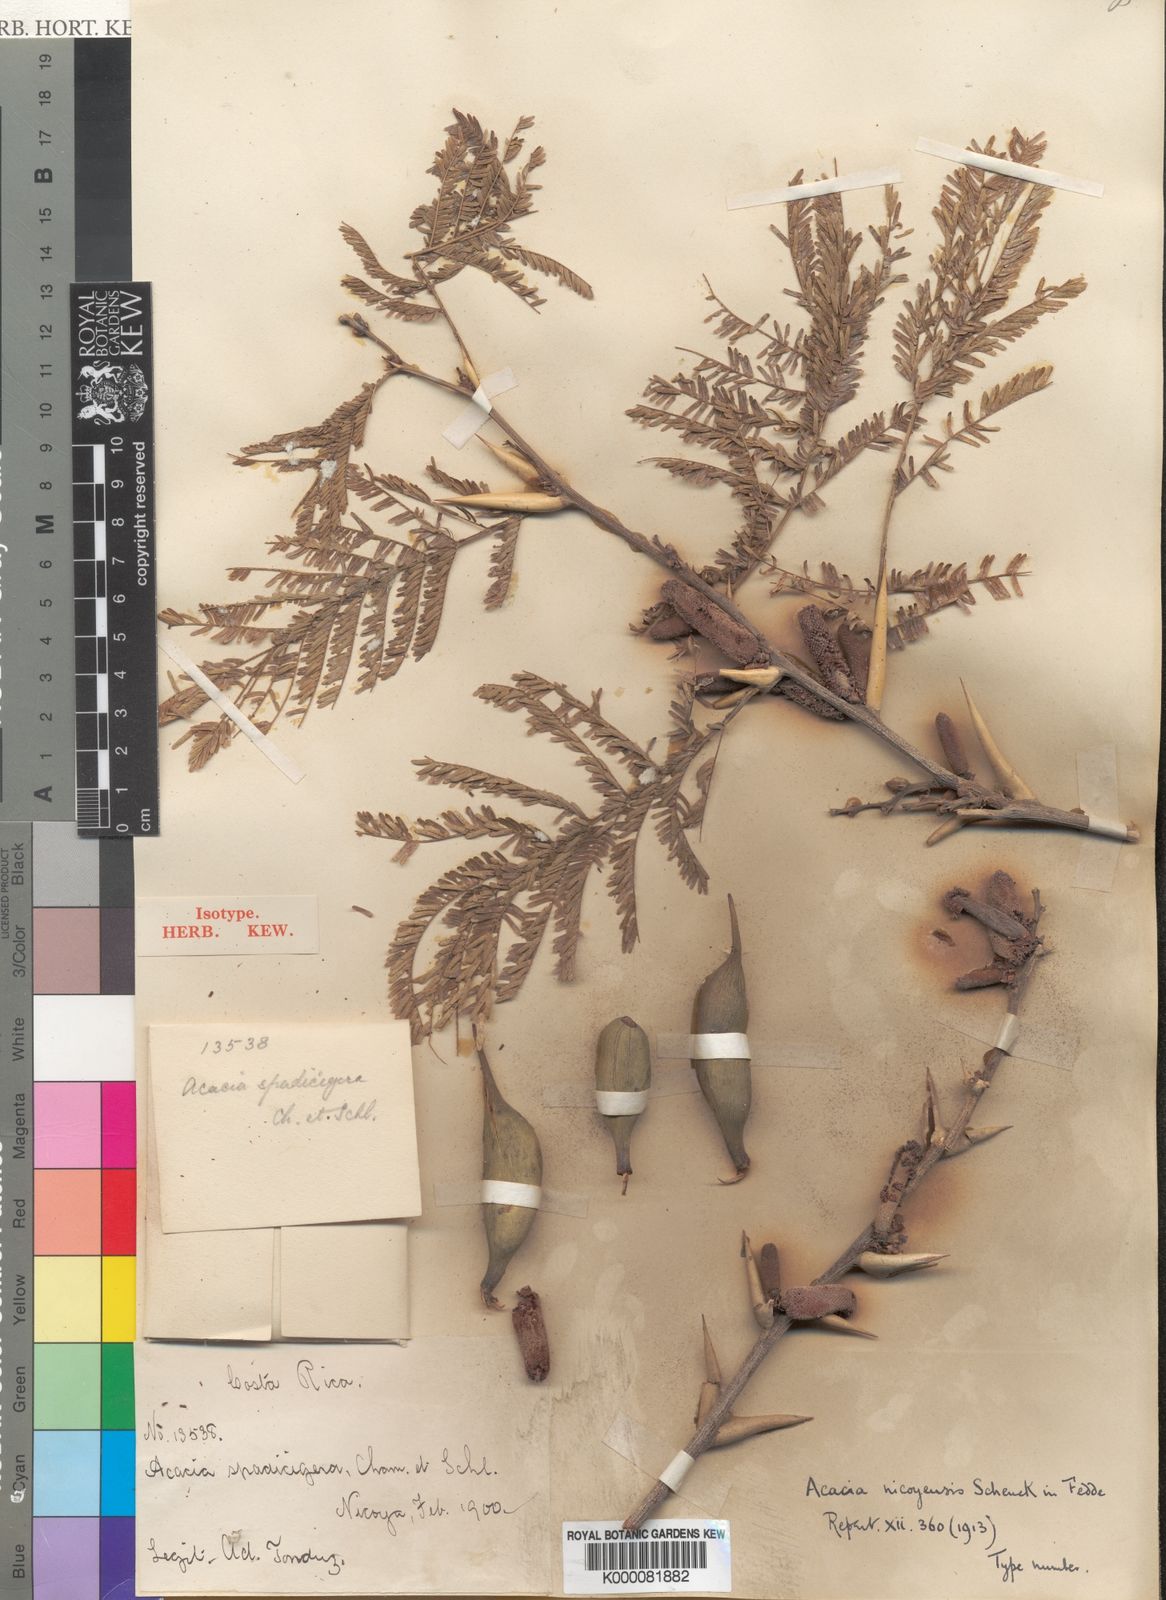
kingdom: Plantae
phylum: Tracheophyta
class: Magnoliopsida
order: Fabales
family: Fabaceae
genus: Vachellia
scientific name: Vachellia cornigera
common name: Bullhorn wattle
